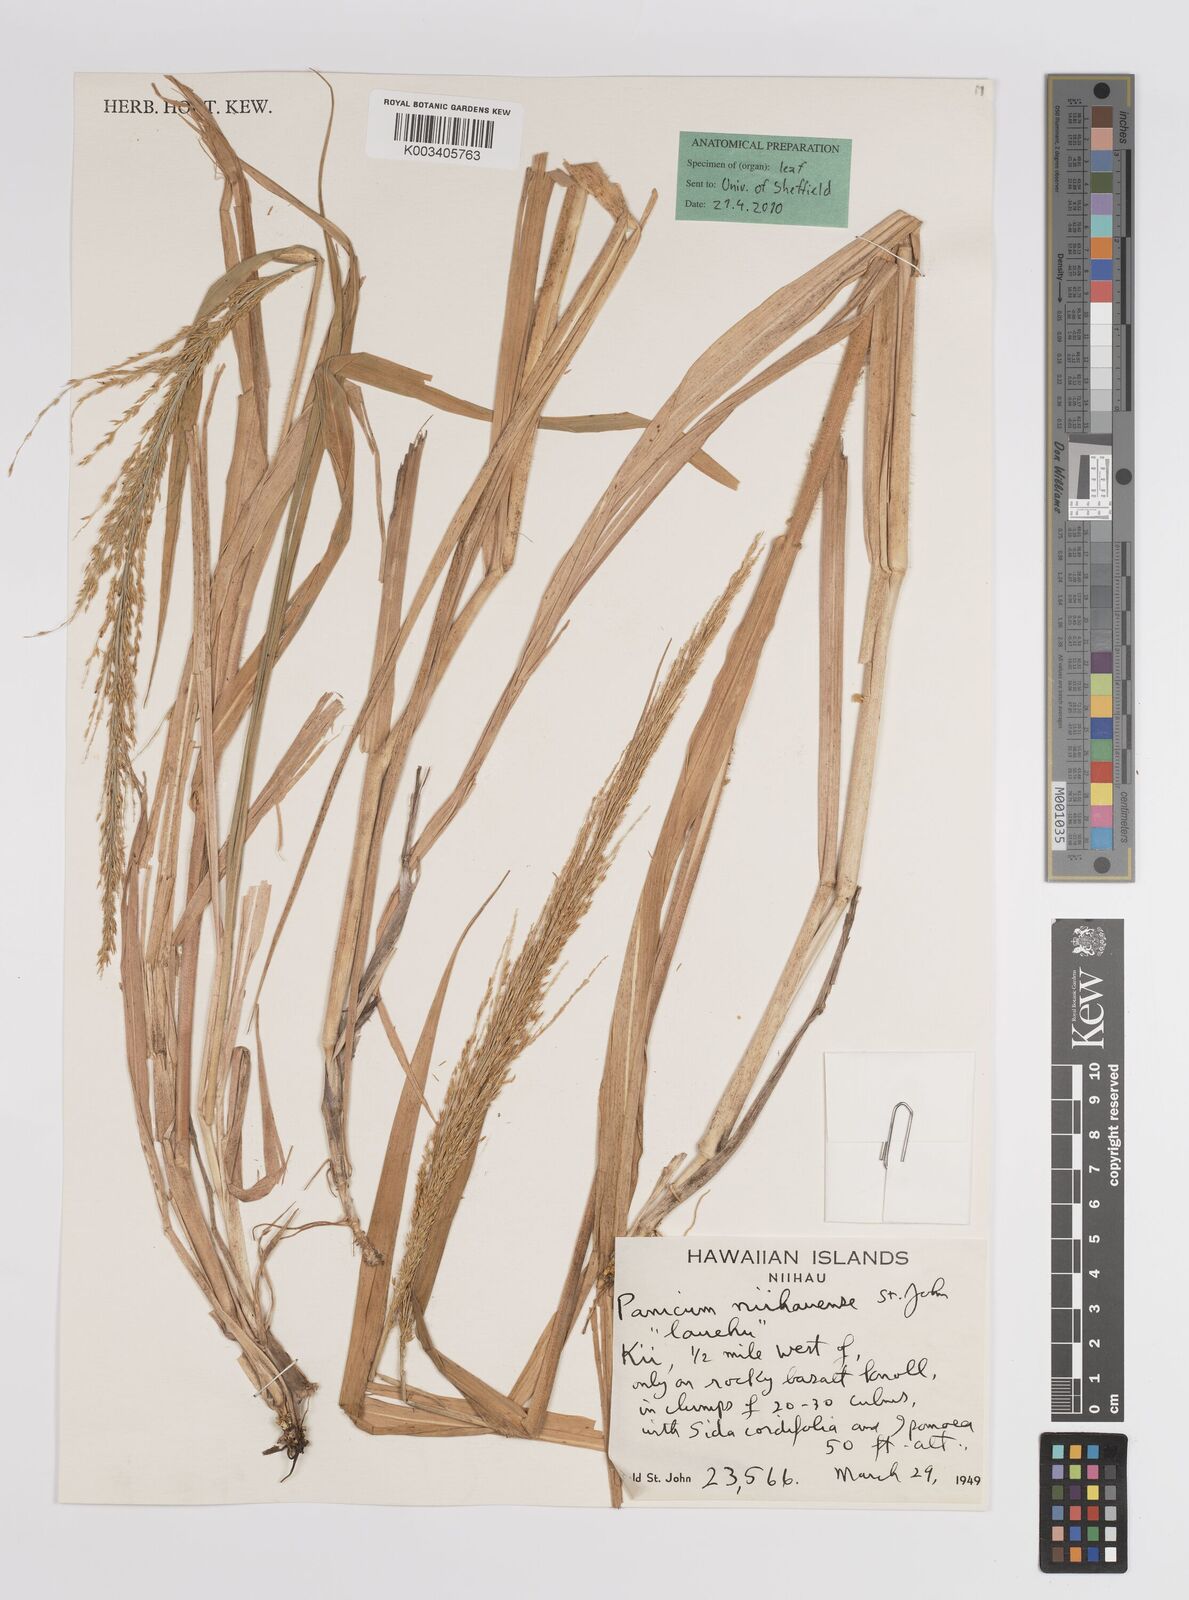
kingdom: Plantae
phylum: Tracheophyta
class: Liliopsida
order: Poales
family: Poaceae
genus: Panicum
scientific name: Panicum niihauense
